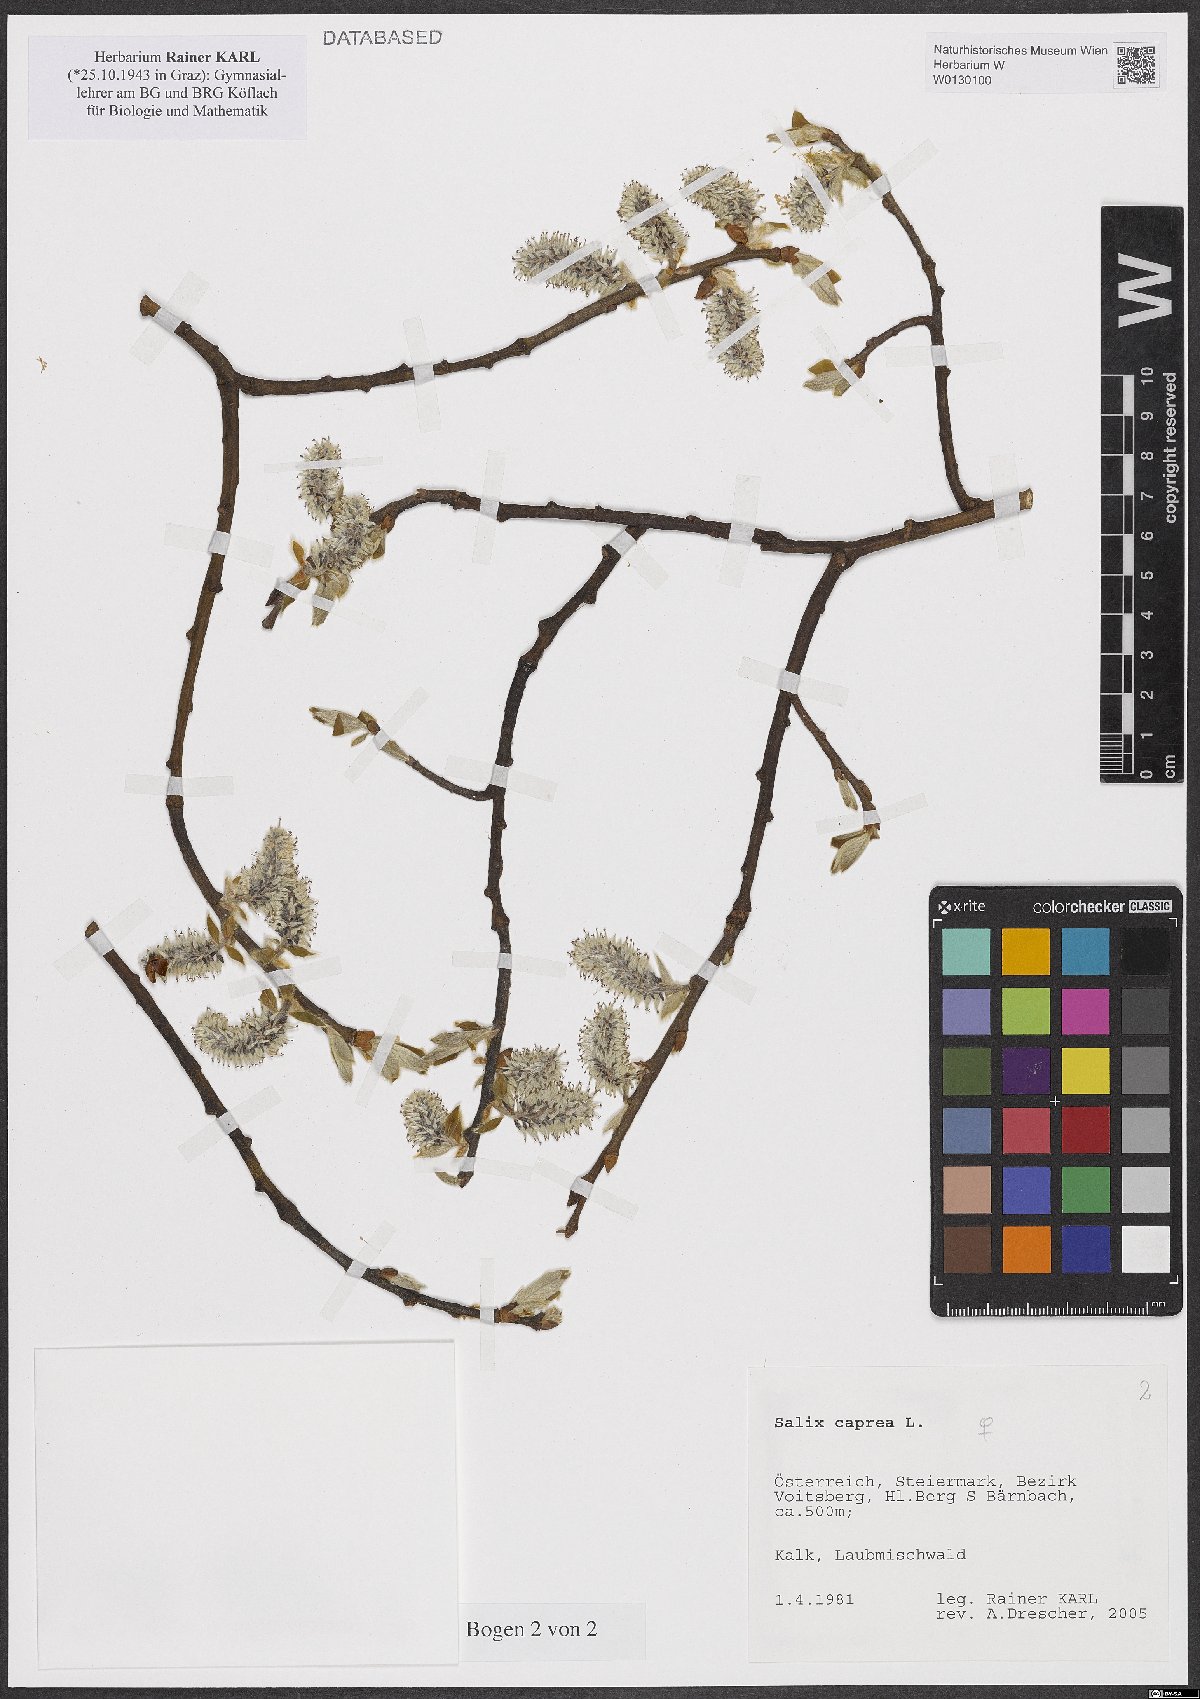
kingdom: Plantae
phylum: Tracheophyta
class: Magnoliopsida
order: Malpighiales
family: Salicaceae
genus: Salix
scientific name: Salix caprea
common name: Goat willow
